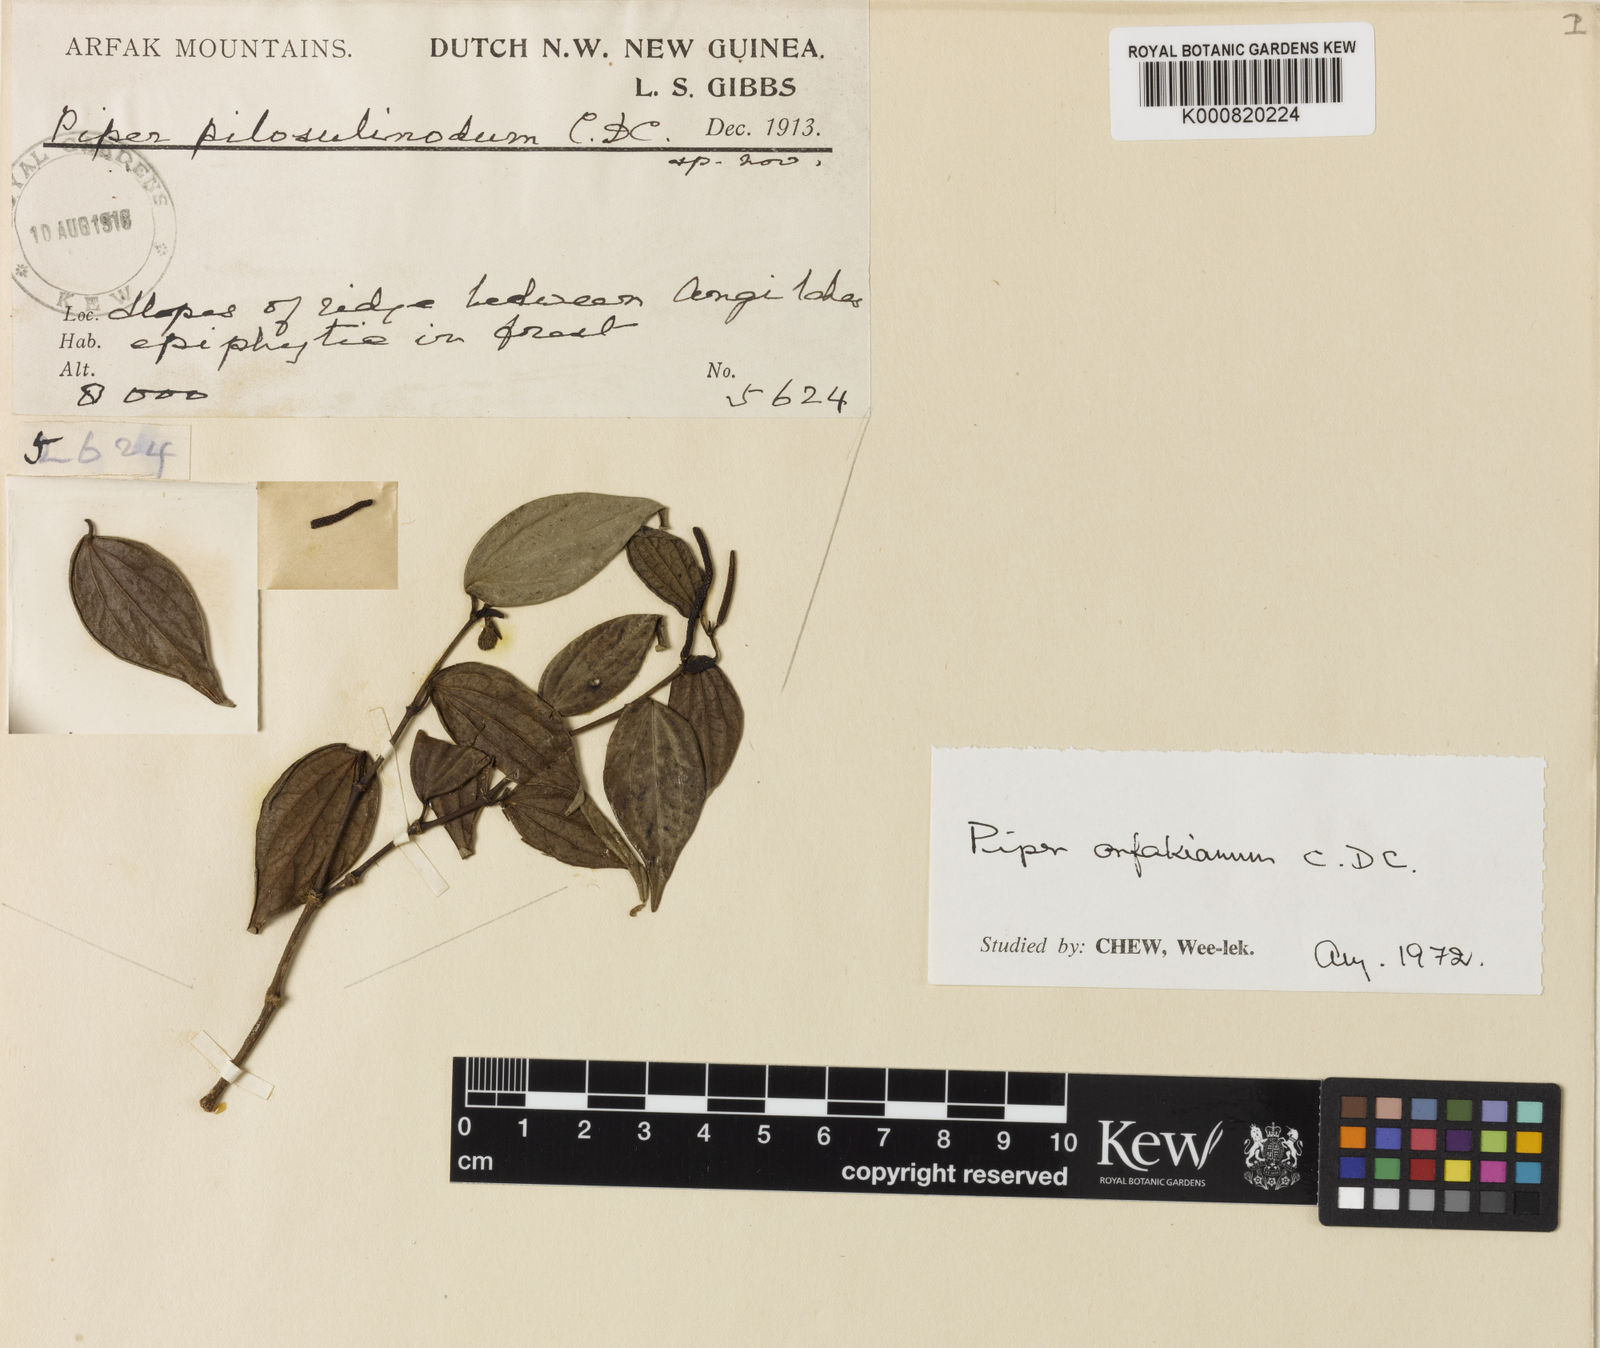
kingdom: Plantae
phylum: Tracheophyta
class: Magnoliopsida
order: Piperales
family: Piperaceae
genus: Piper
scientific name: Piper arfakianum
